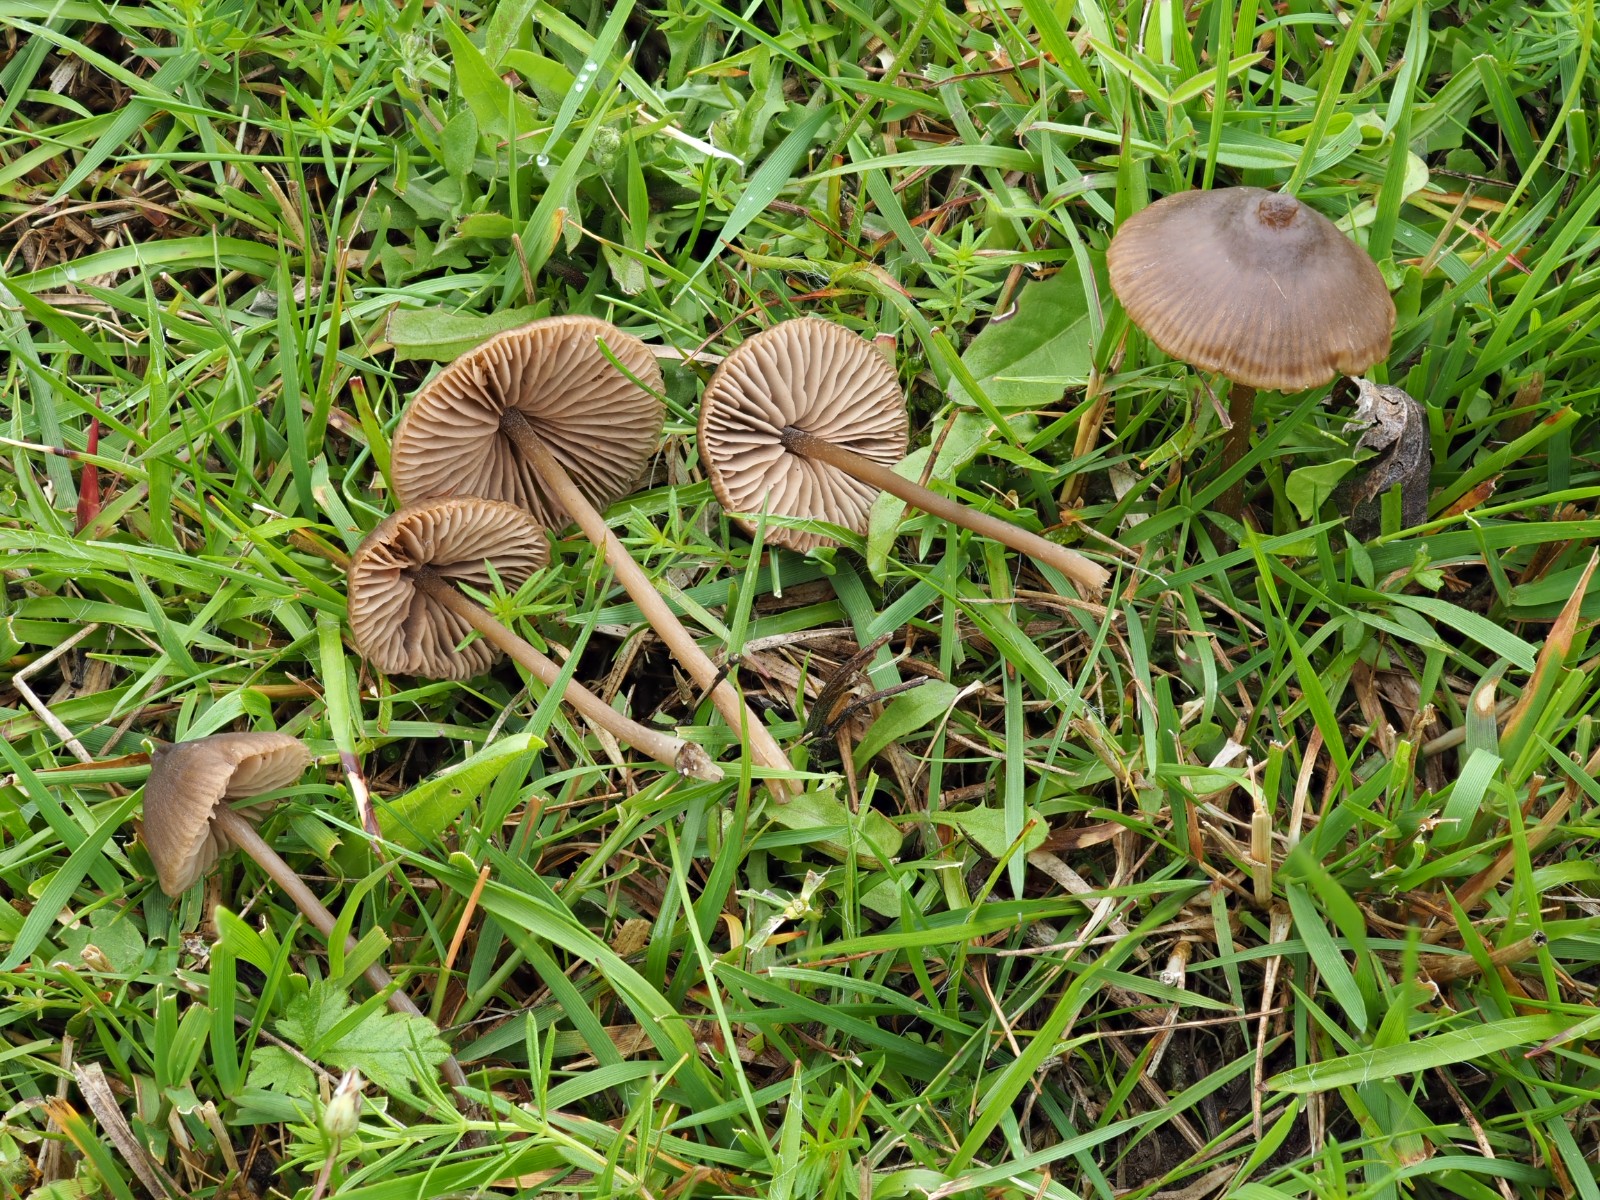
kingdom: Fungi
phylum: Basidiomycota
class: Agaricomycetes
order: Agaricales
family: Entolomataceae
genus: Entoloma
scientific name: Entoloma clandestinum
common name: tykbladet rødblad
